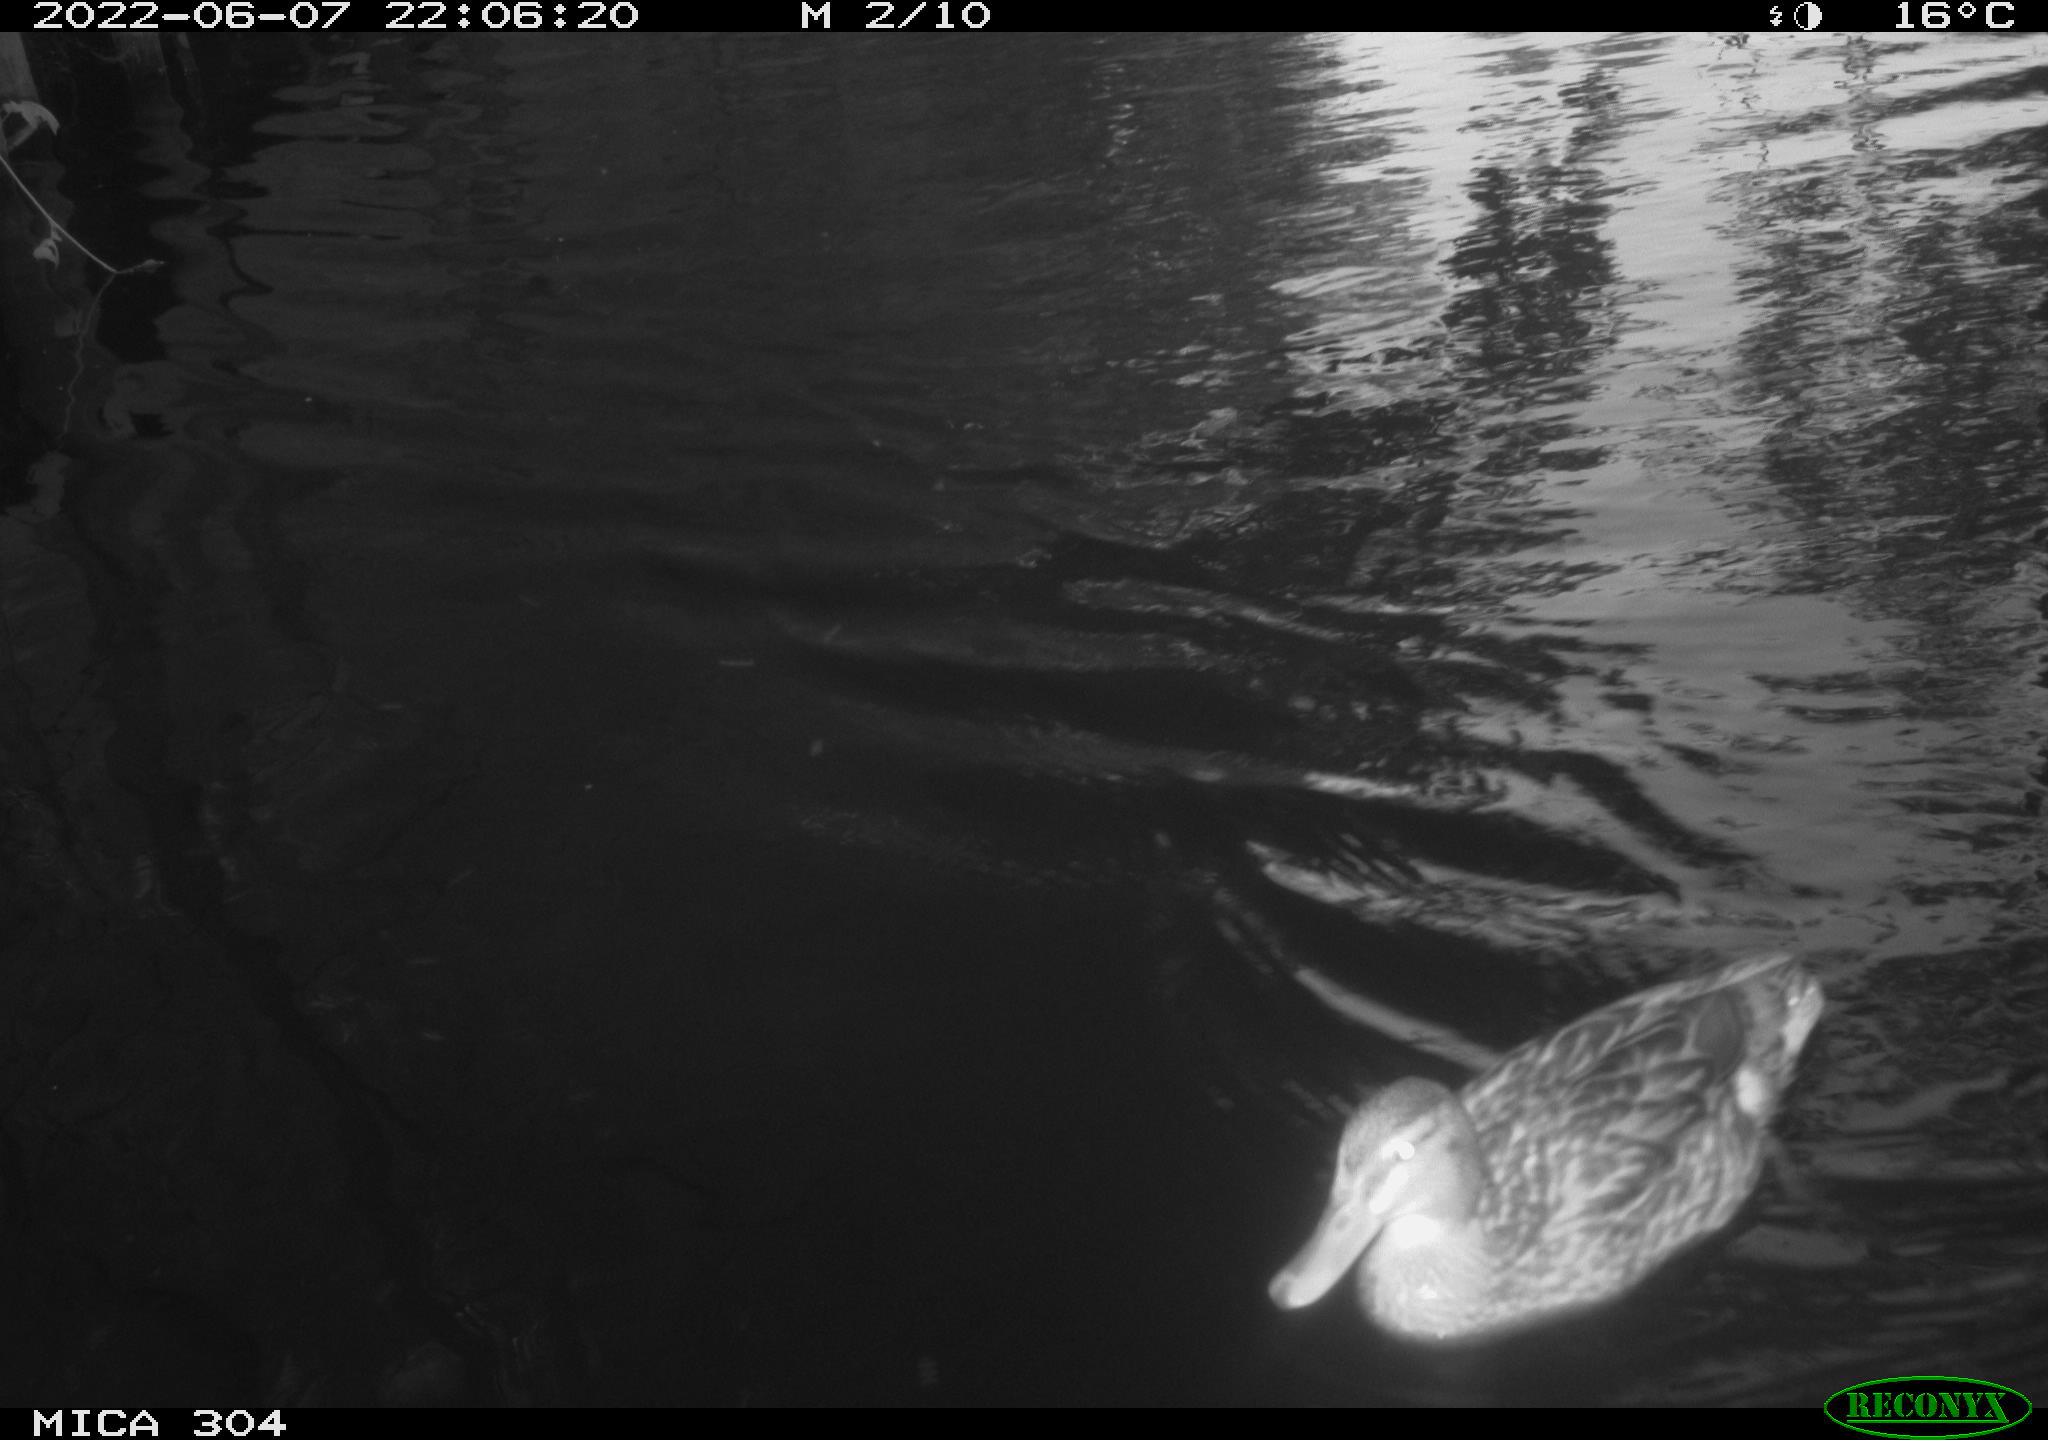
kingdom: Animalia
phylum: Chordata
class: Aves
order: Gruiformes
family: Rallidae
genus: Gallinula
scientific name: Gallinula chloropus
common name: Common moorhen
